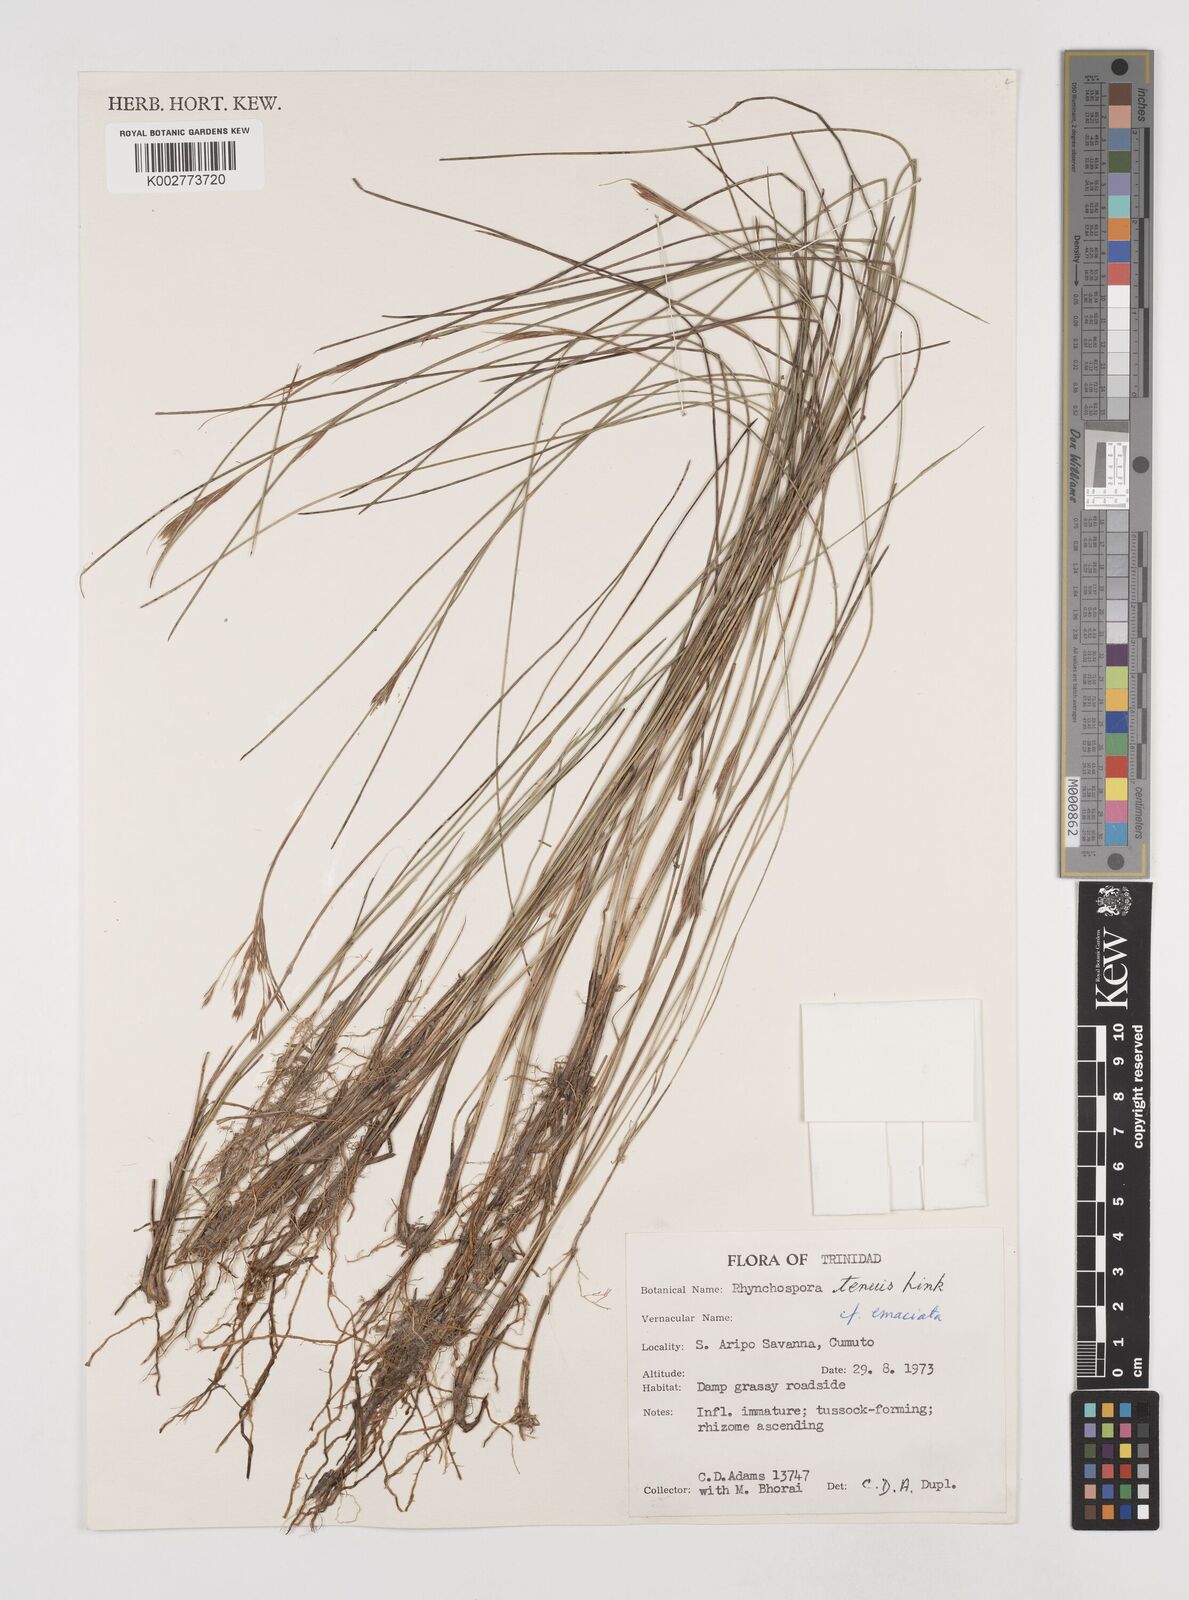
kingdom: Plantae
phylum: Tracheophyta
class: Liliopsida
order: Poales
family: Cyperaceae
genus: Rhynchospora
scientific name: Rhynchospora tenuis
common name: Quill beaksedge
